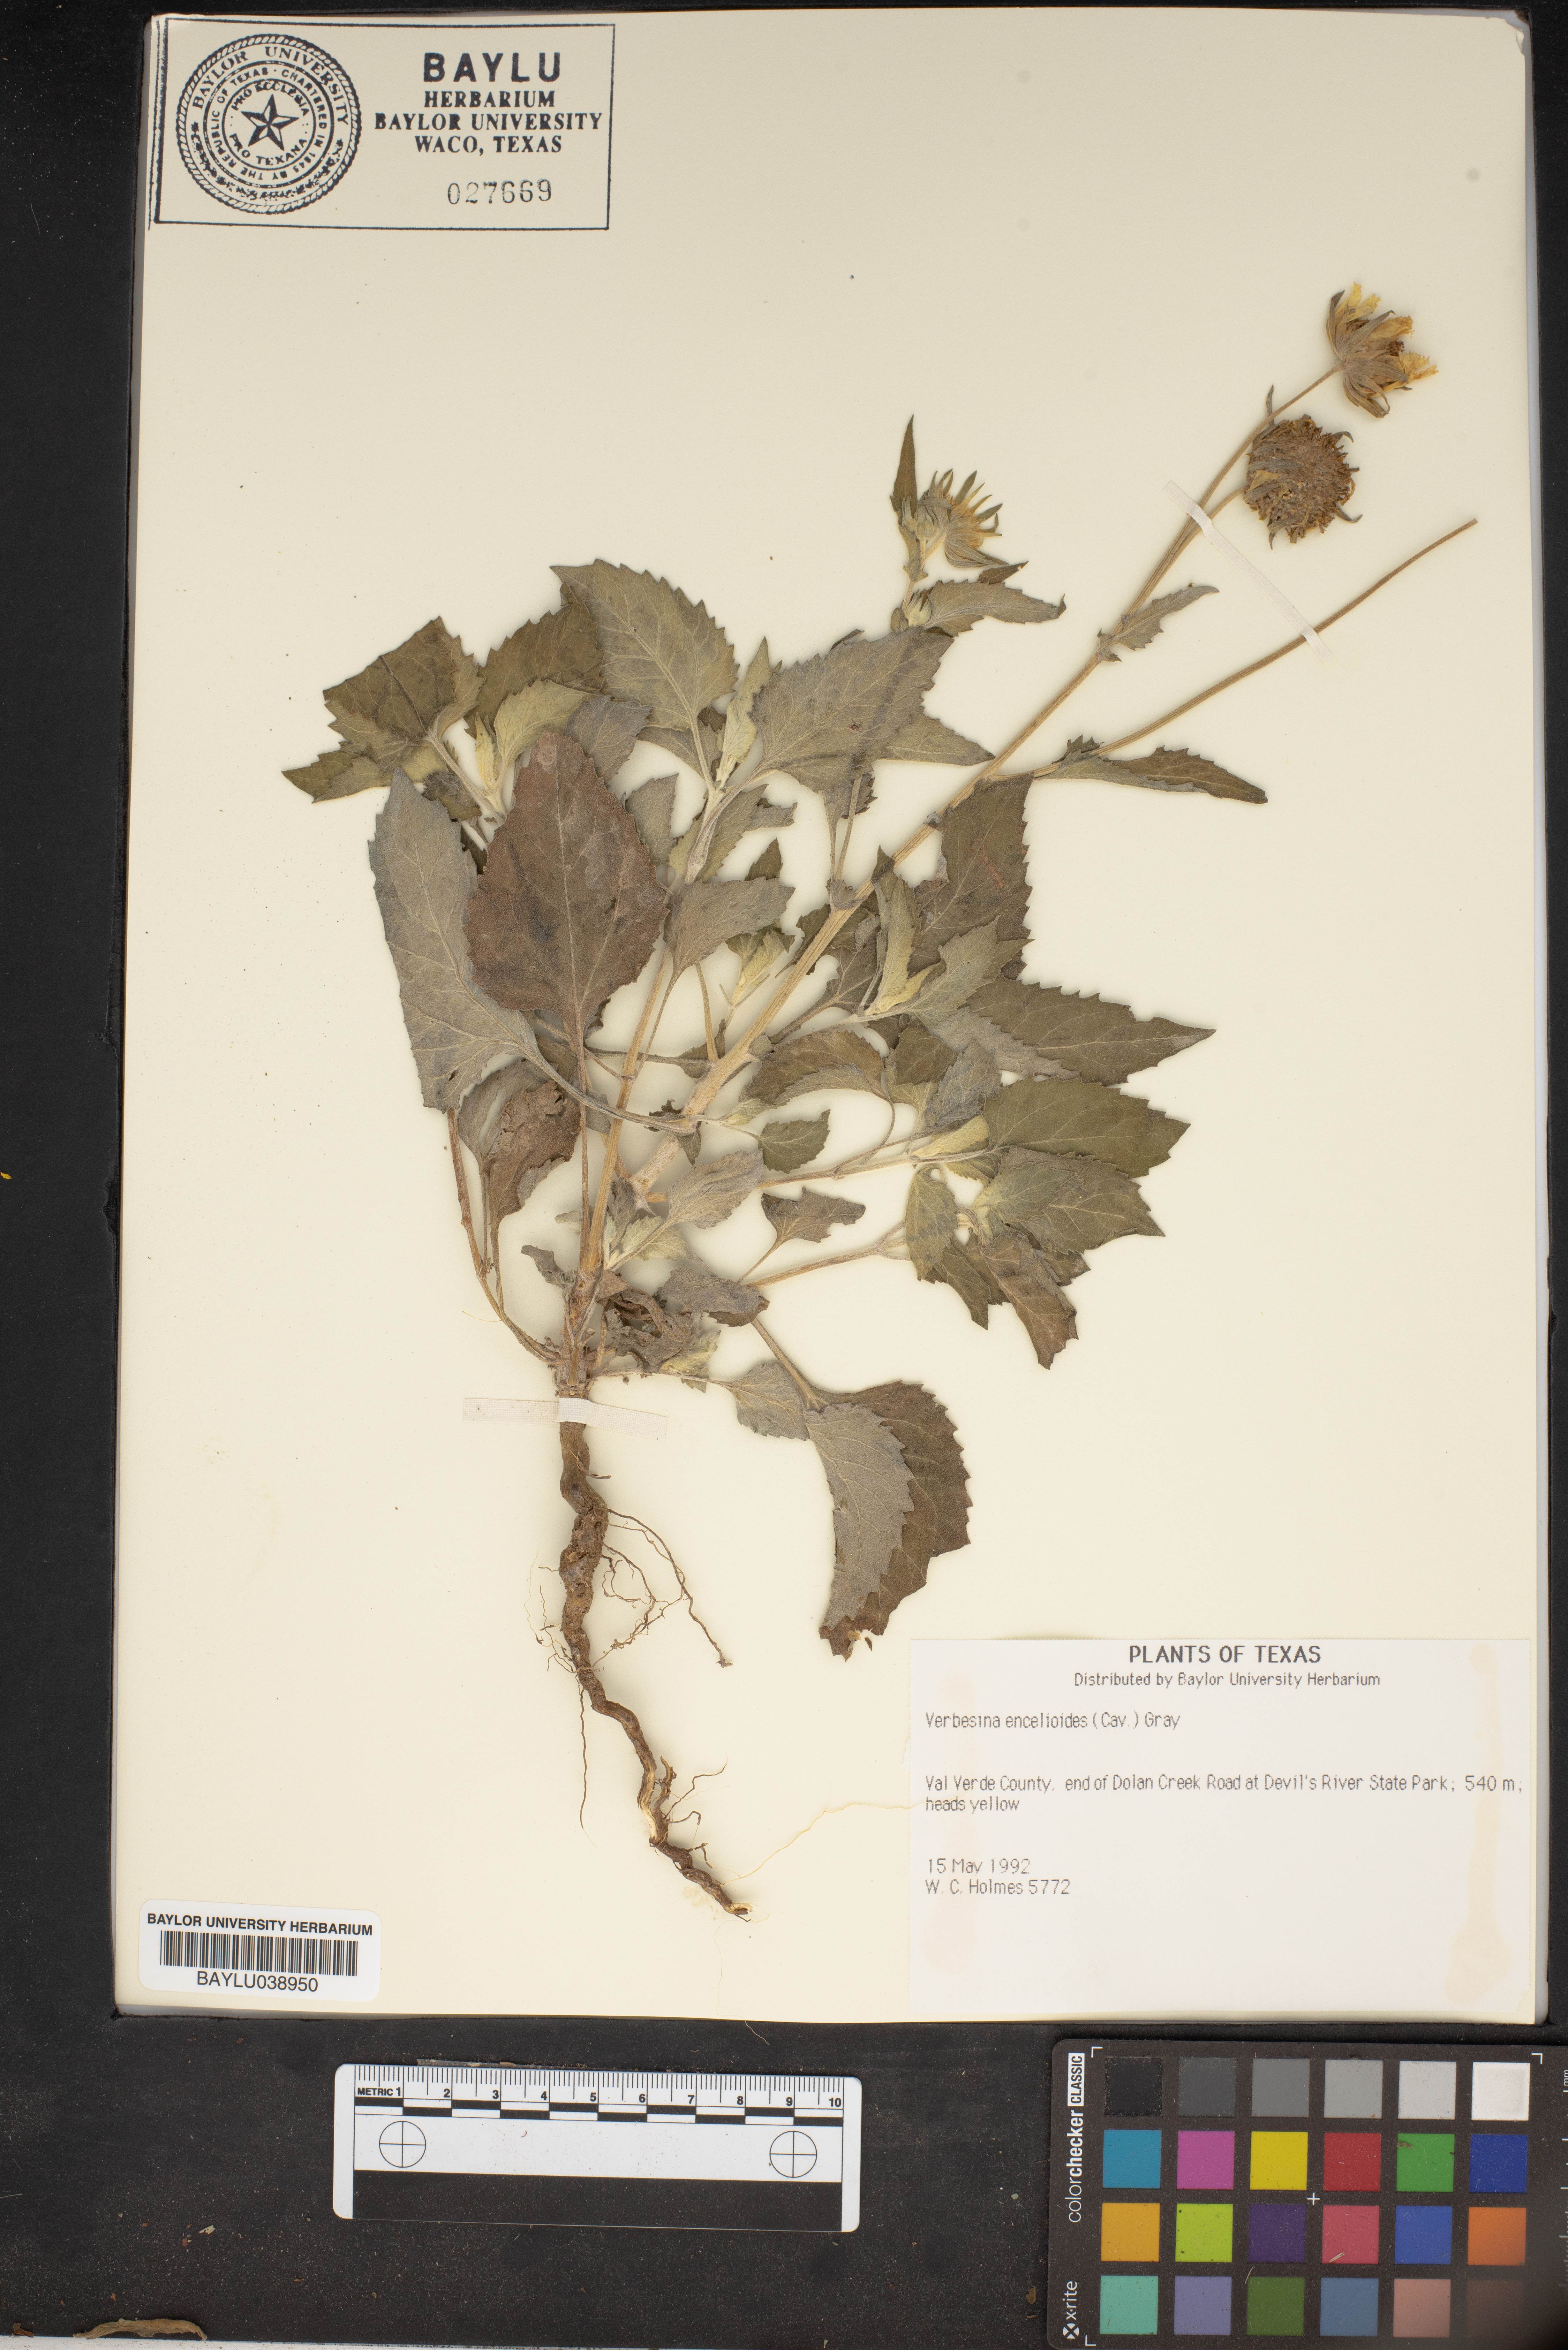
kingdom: Plantae
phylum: Tracheophyta
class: Magnoliopsida
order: Asterales
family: Asteraceae
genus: Verbesina
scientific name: Verbesina encelioides
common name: Golden crownbeard
